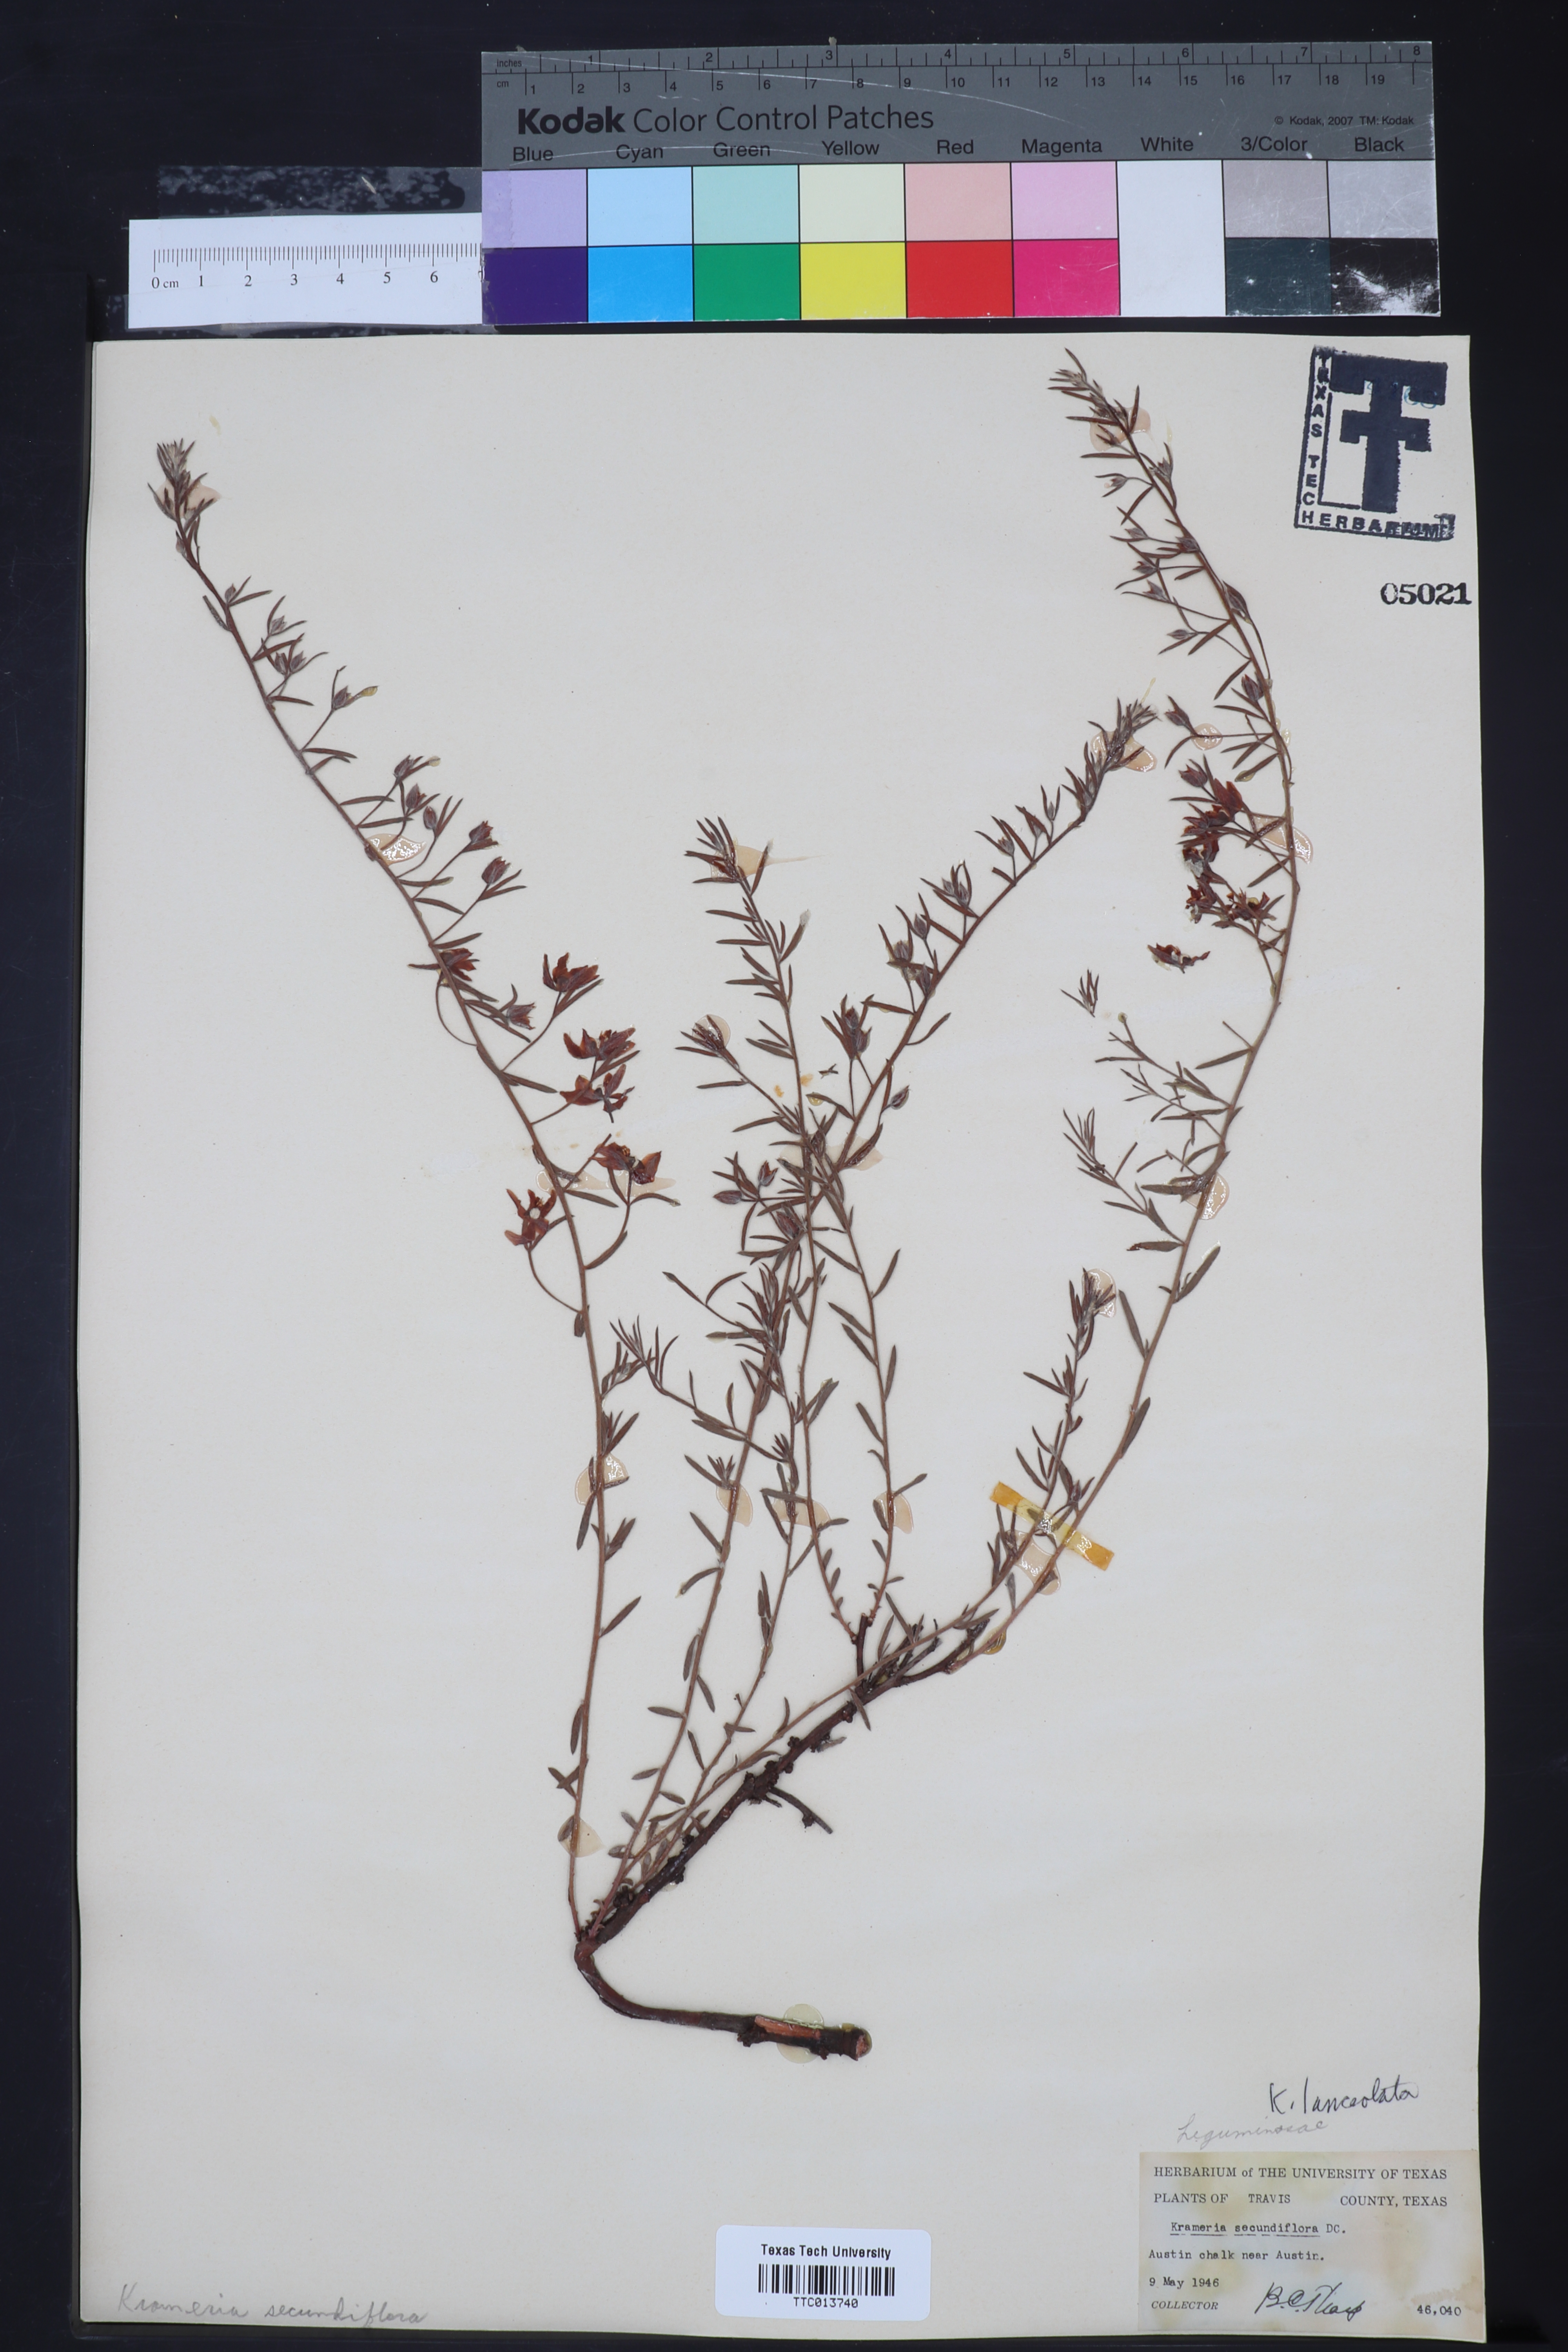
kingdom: Plantae
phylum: Tracheophyta
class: Magnoliopsida
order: Zygophyllales
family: Krameriaceae
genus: Krameria
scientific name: Krameria lanceolata
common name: Ratany
